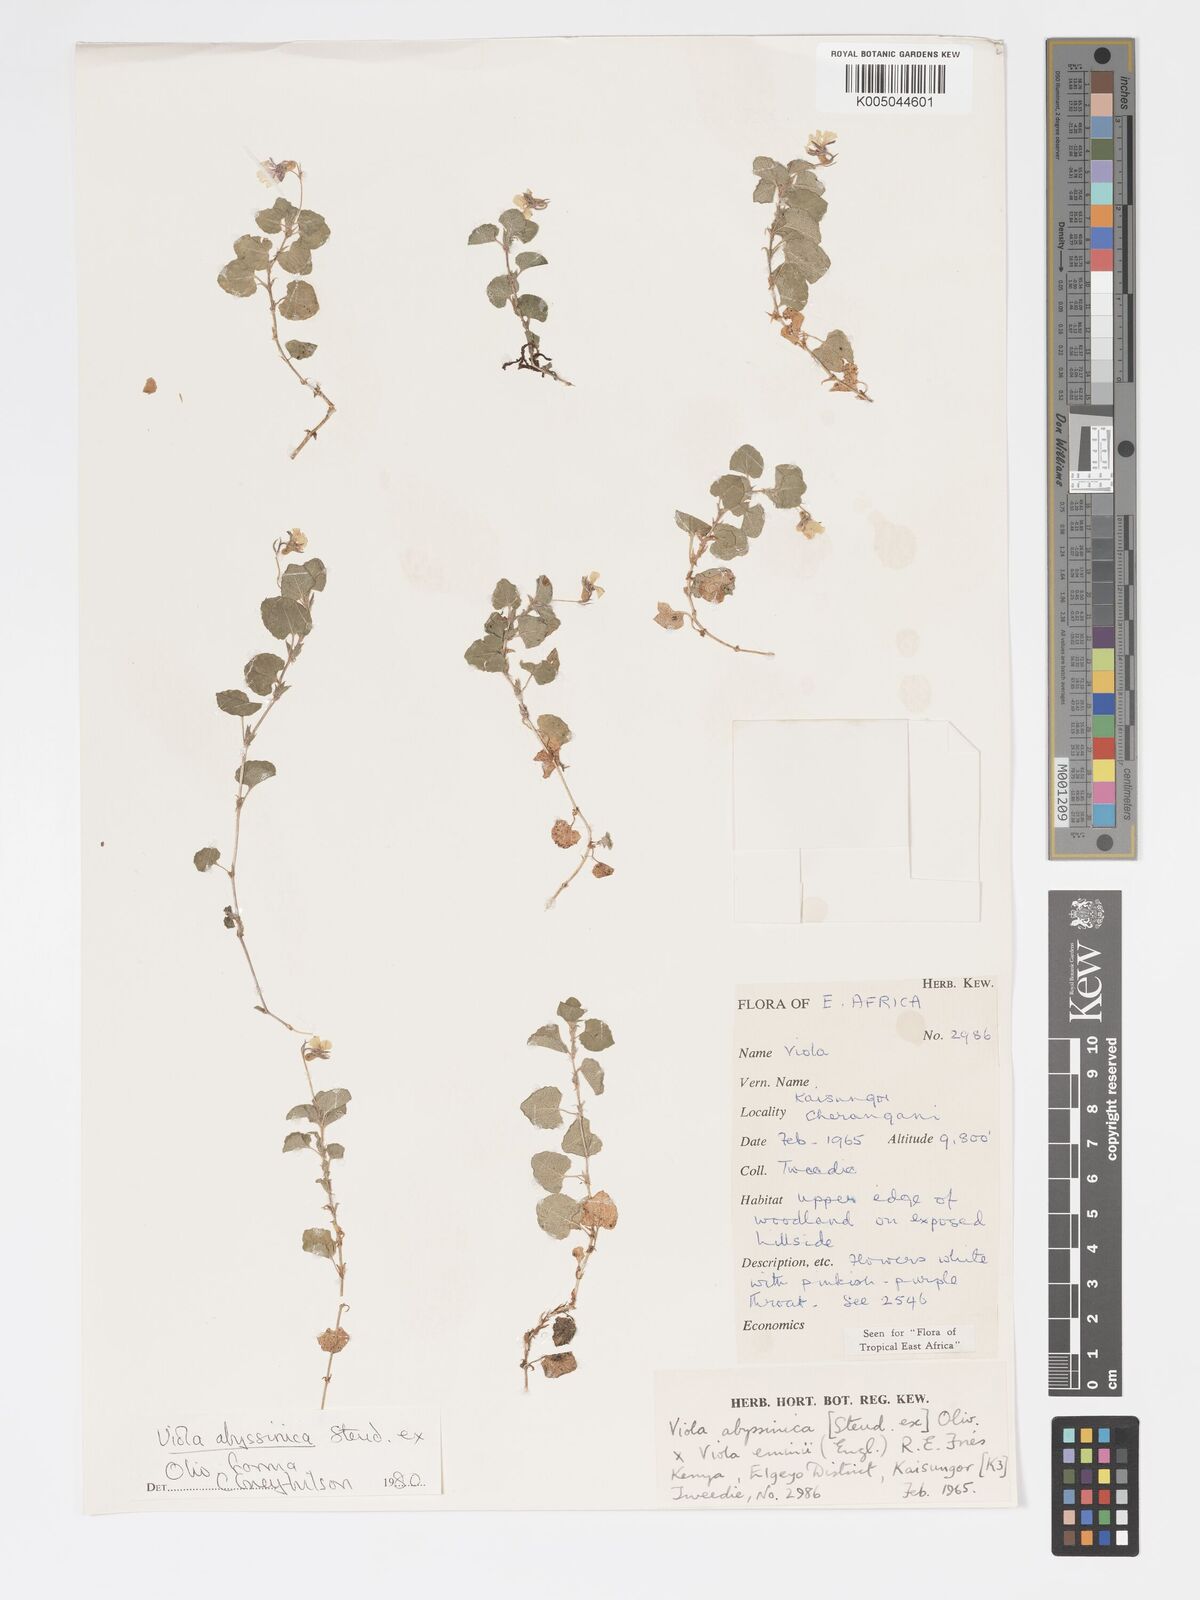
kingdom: Plantae
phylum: Tracheophyta
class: Magnoliopsida
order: Malpighiales
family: Violaceae
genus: Viola
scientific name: Viola abyssinica
